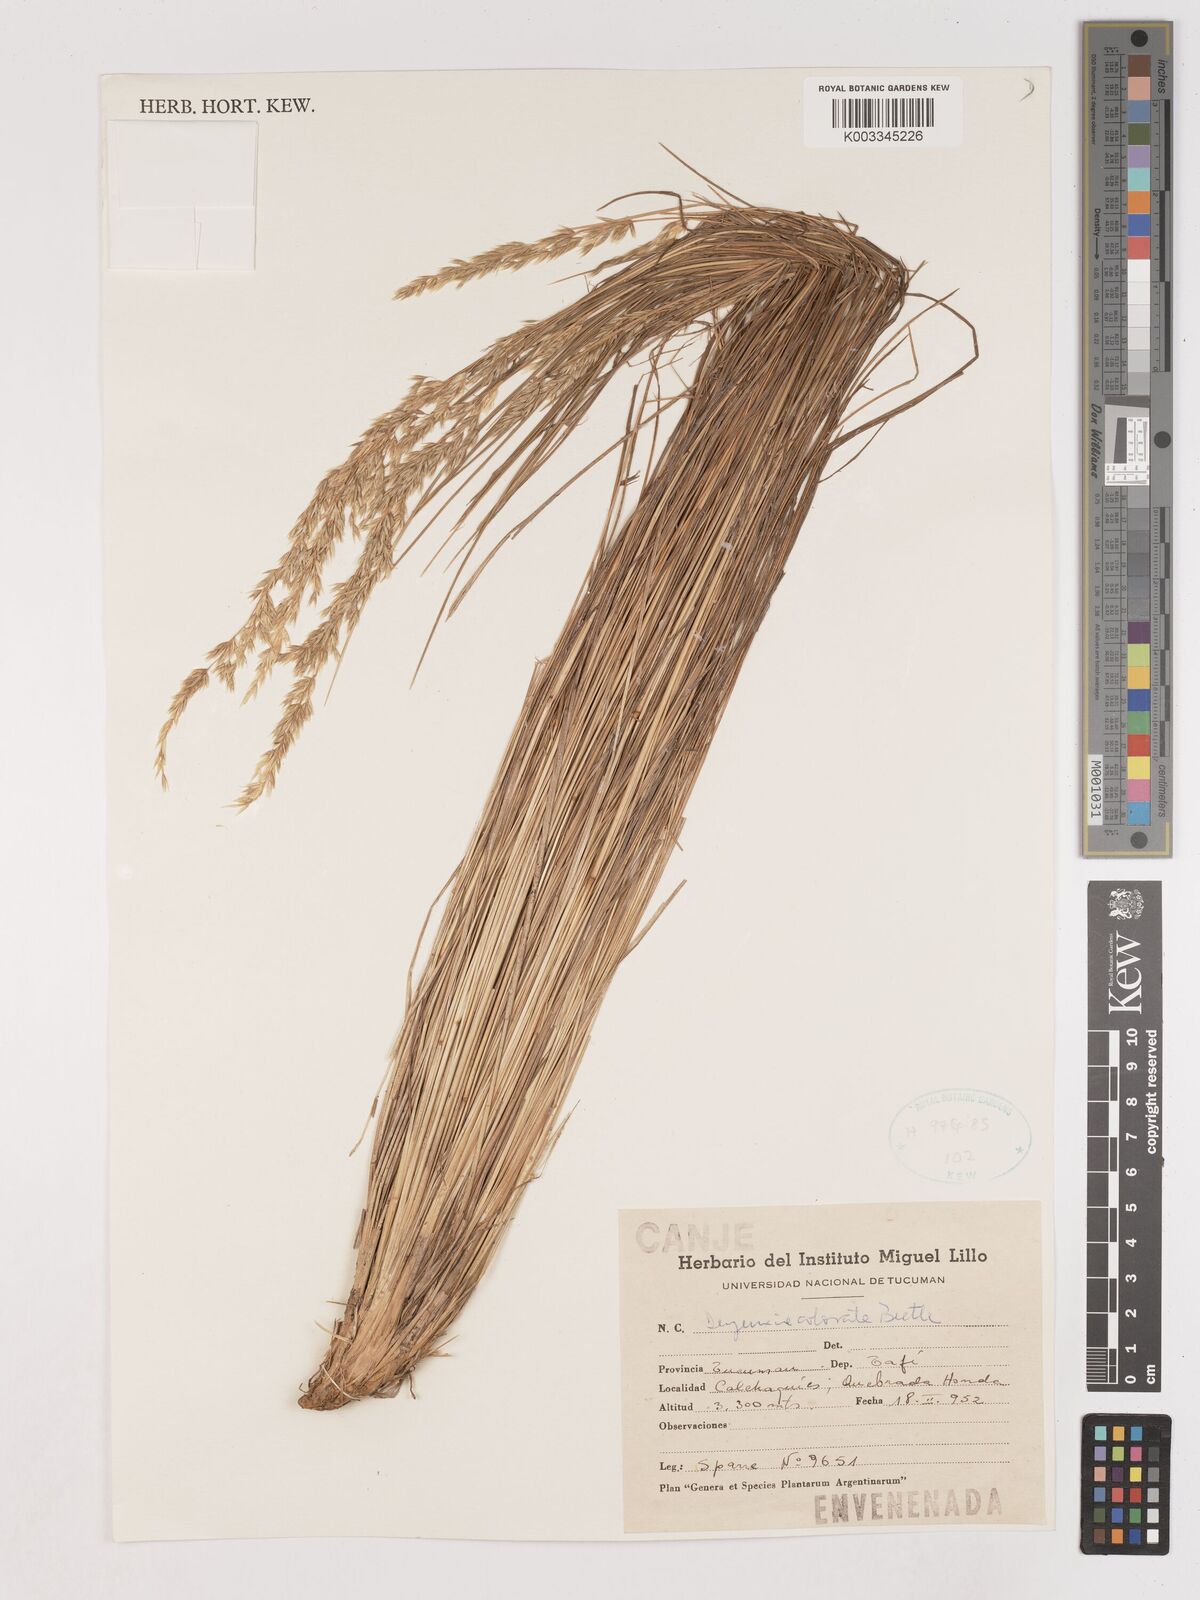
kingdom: Plantae
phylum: Tracheophyta
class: Liliopsida
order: Poales
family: Poaceae
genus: Calamagrostis
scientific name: Calamagrostis borii
